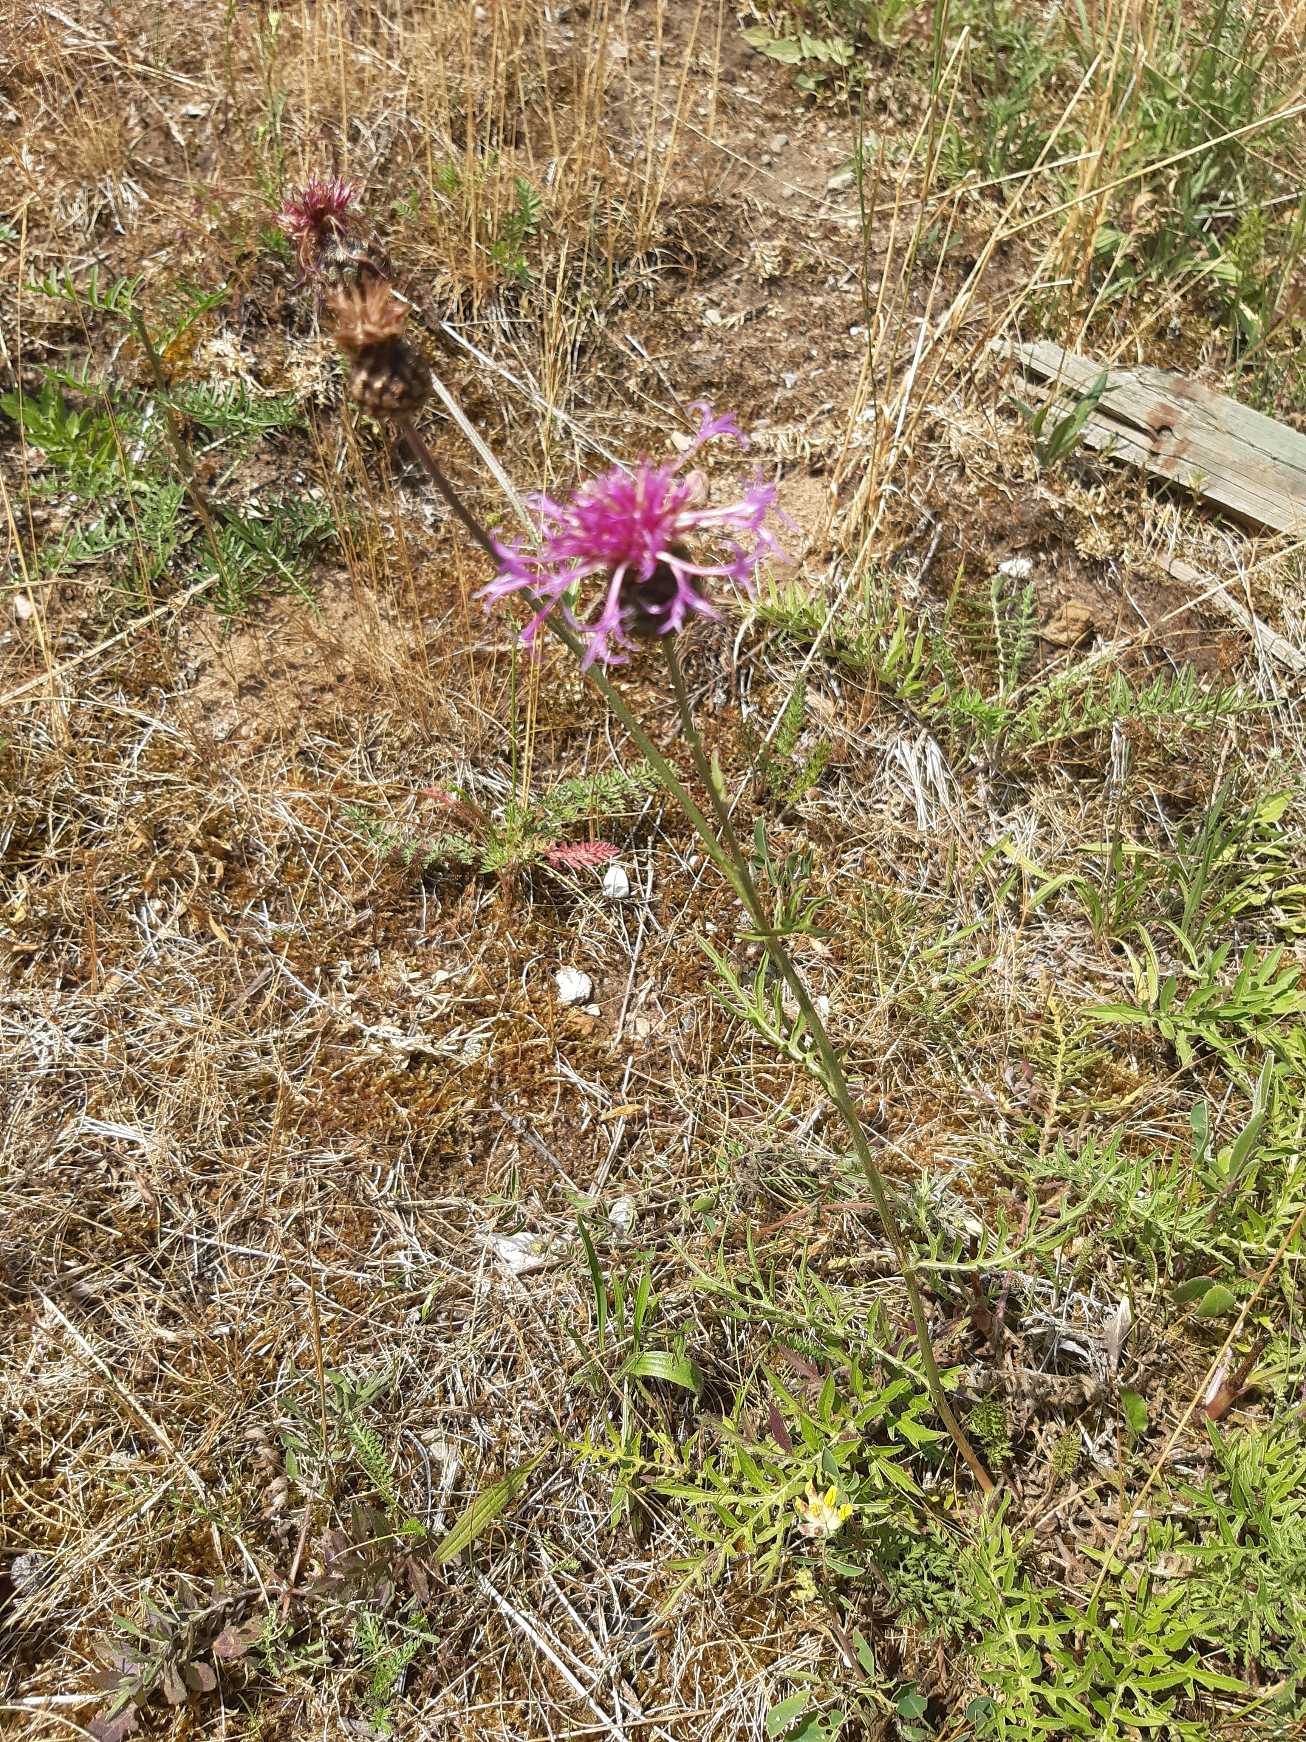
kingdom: Plantae
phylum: Tracheophyta
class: Magnoliopsida
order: Asterales
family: Asteraceae
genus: Centaurea
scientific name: Centaurea scabiosa
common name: Stor knopurt
